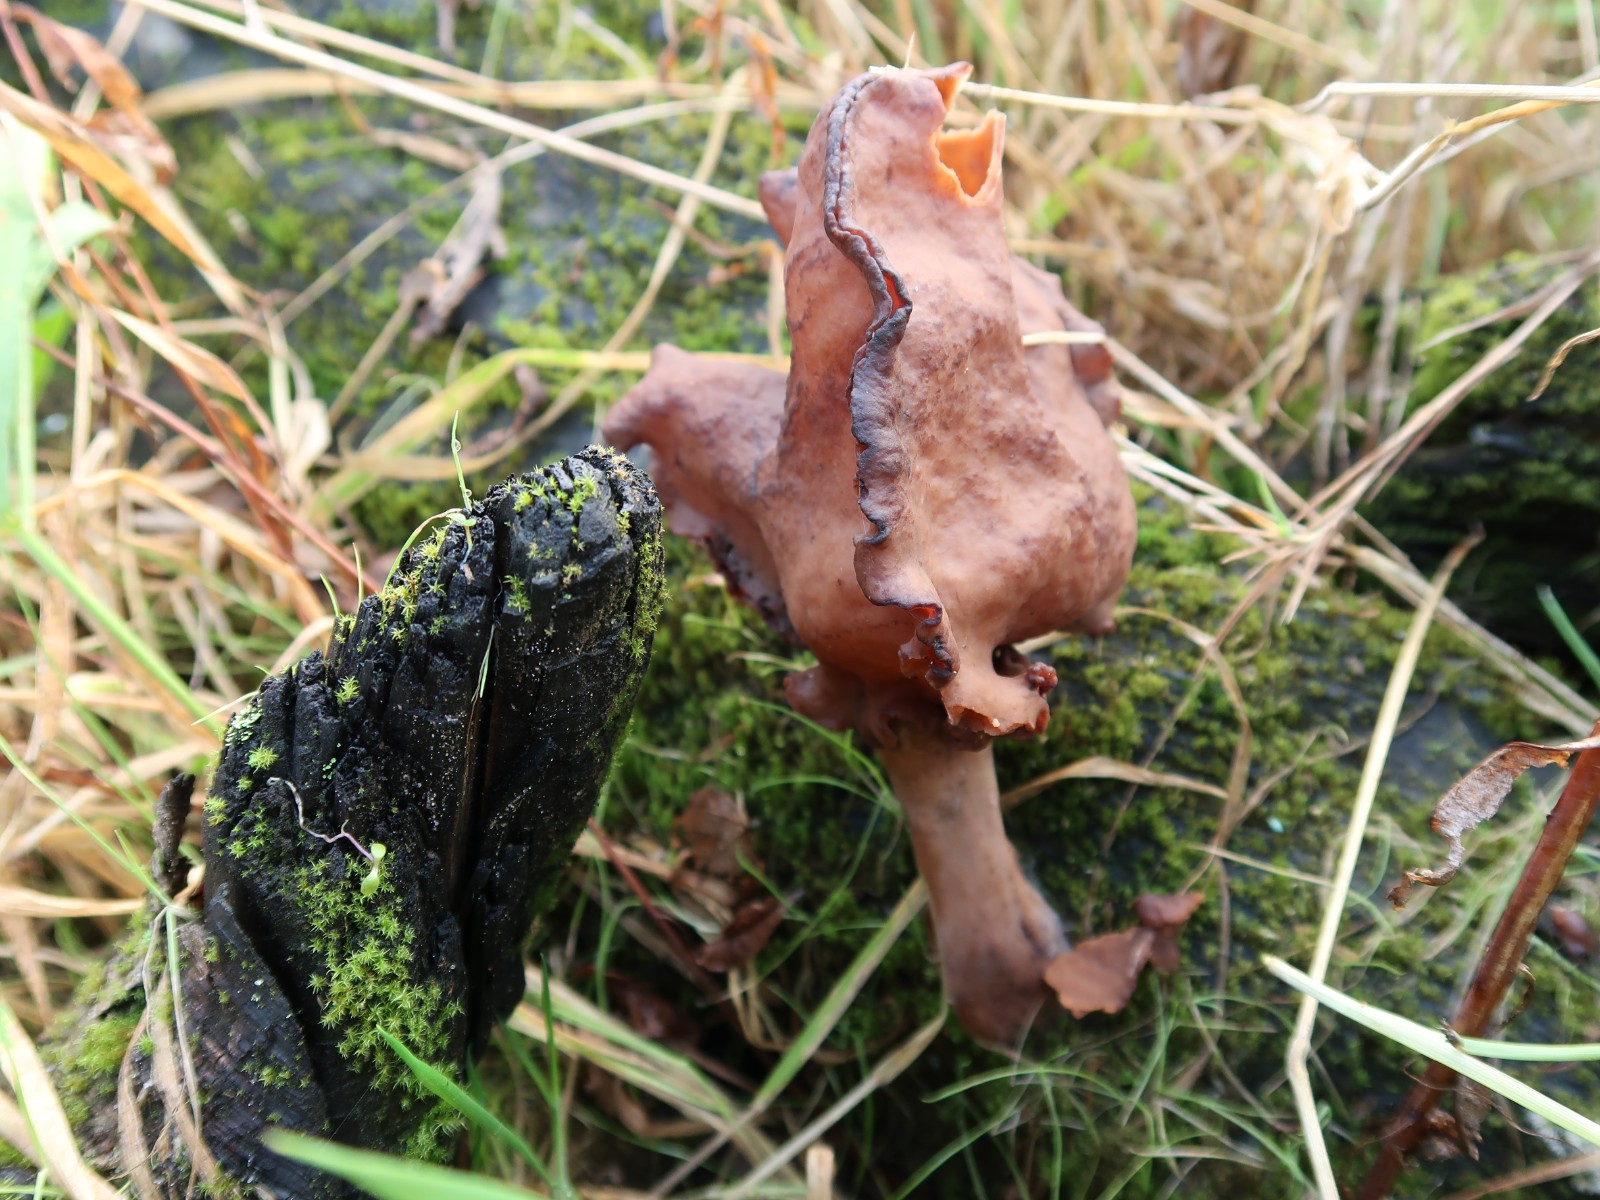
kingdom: Fungi
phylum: Ascomycota
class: Pezizomycetes
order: Pezizales
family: Discinaceae
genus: Gyromitra
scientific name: Gyromitra infula
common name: bispehue-stenmorkel
